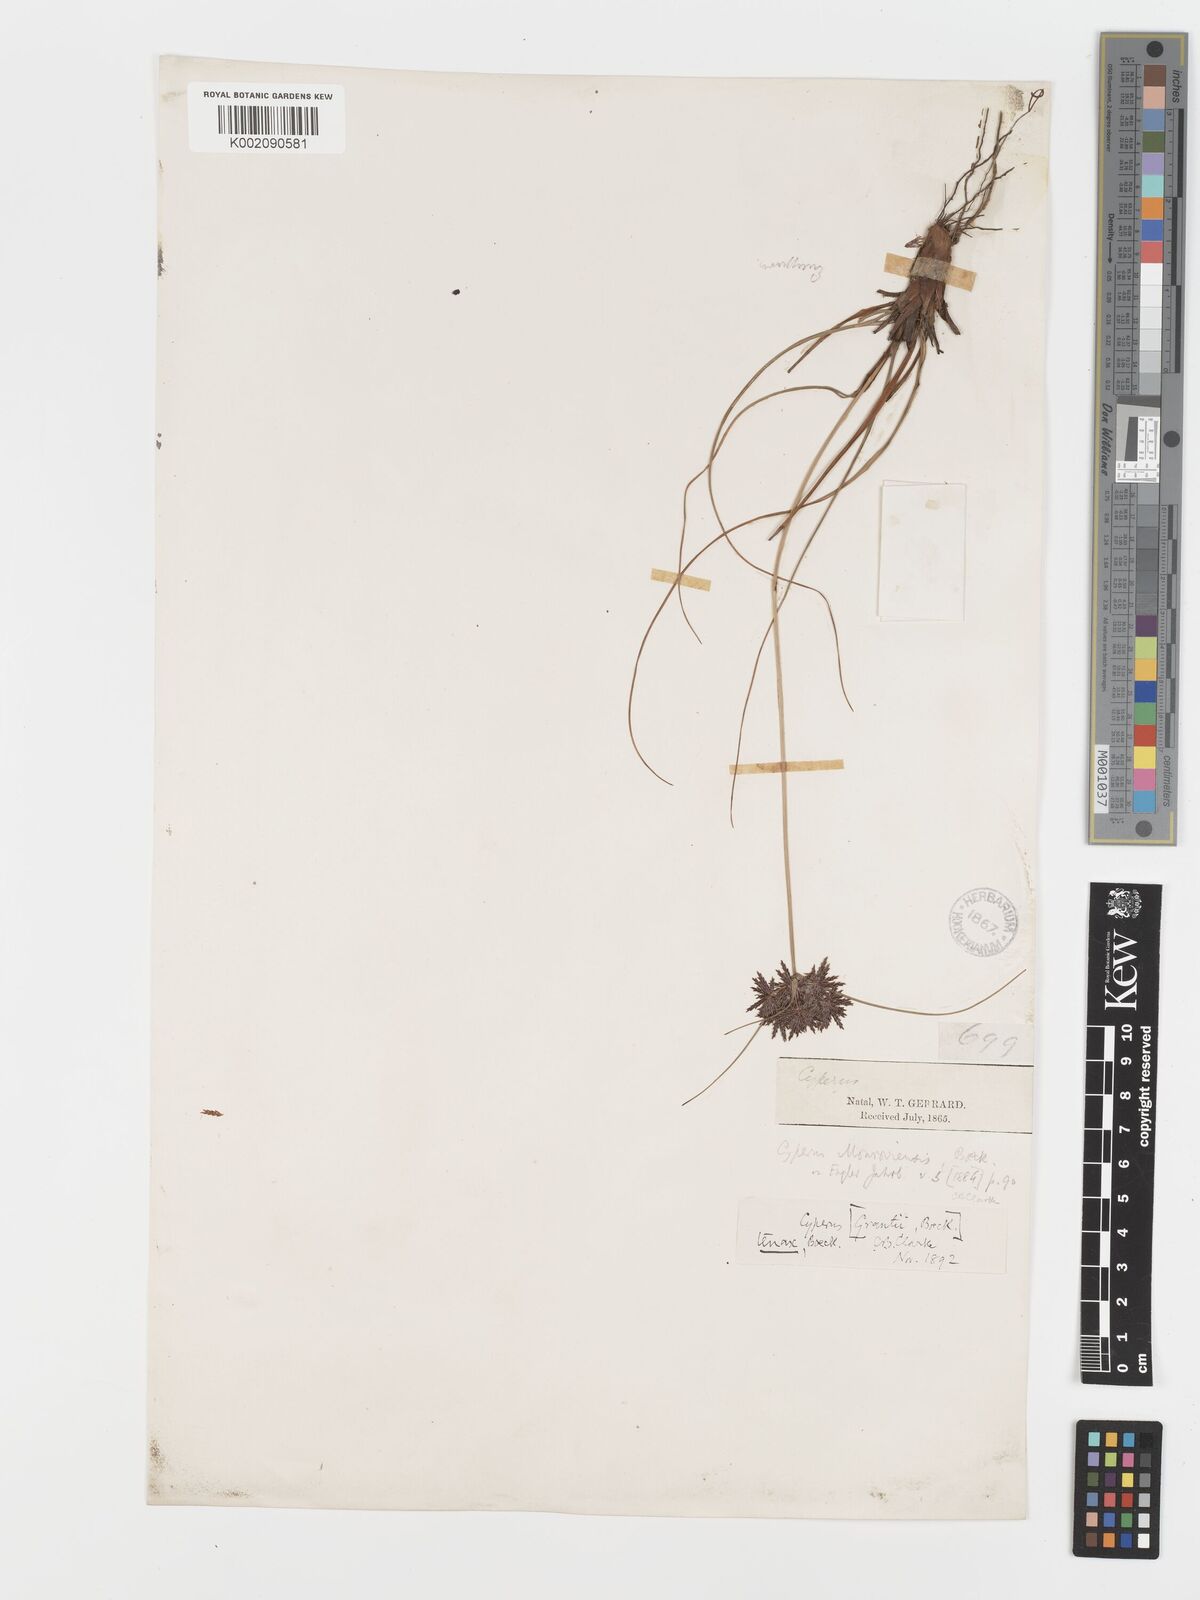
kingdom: Plantae
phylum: Tracheophyta
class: Liliopsida
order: Poales
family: Cyperaceae
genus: Cyperus
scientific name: Cyperus tenax
